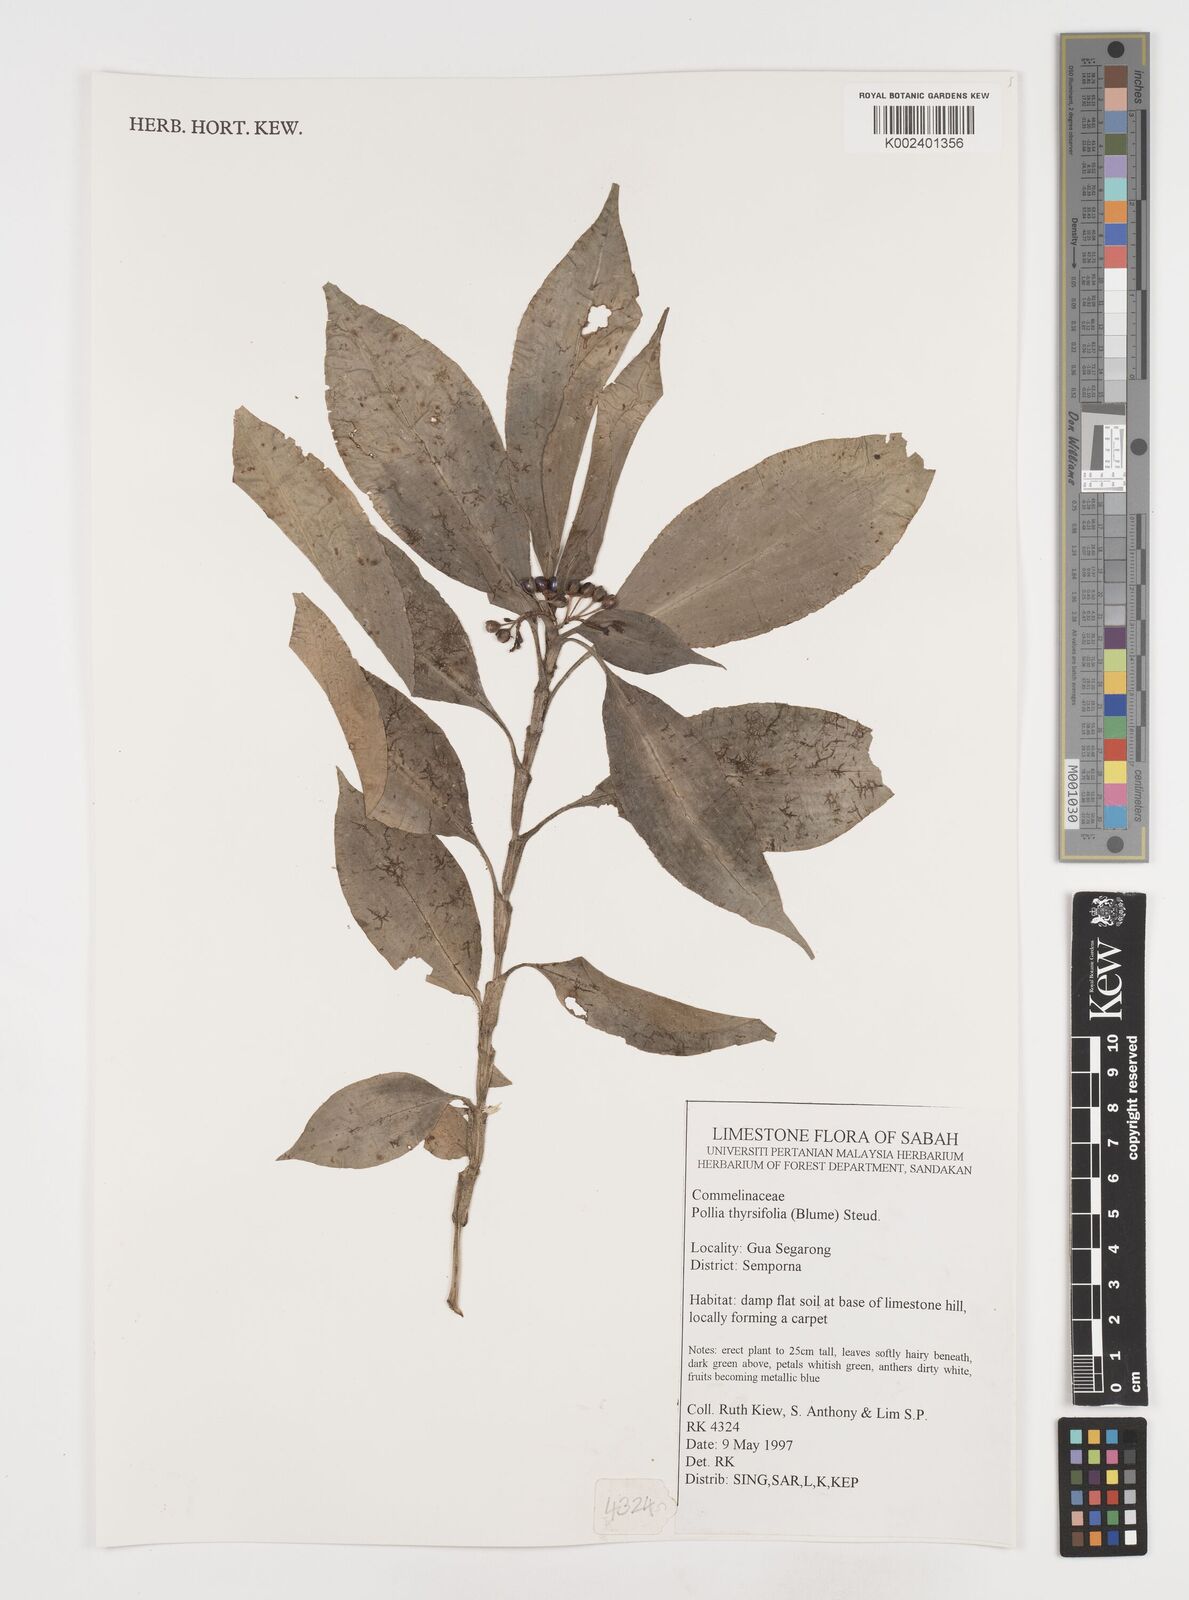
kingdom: Plantae
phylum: Tracheophyta
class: Liliopsida
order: Commelinales
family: Commelinaceae
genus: Pollia
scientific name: Pollia thyrsiflora
